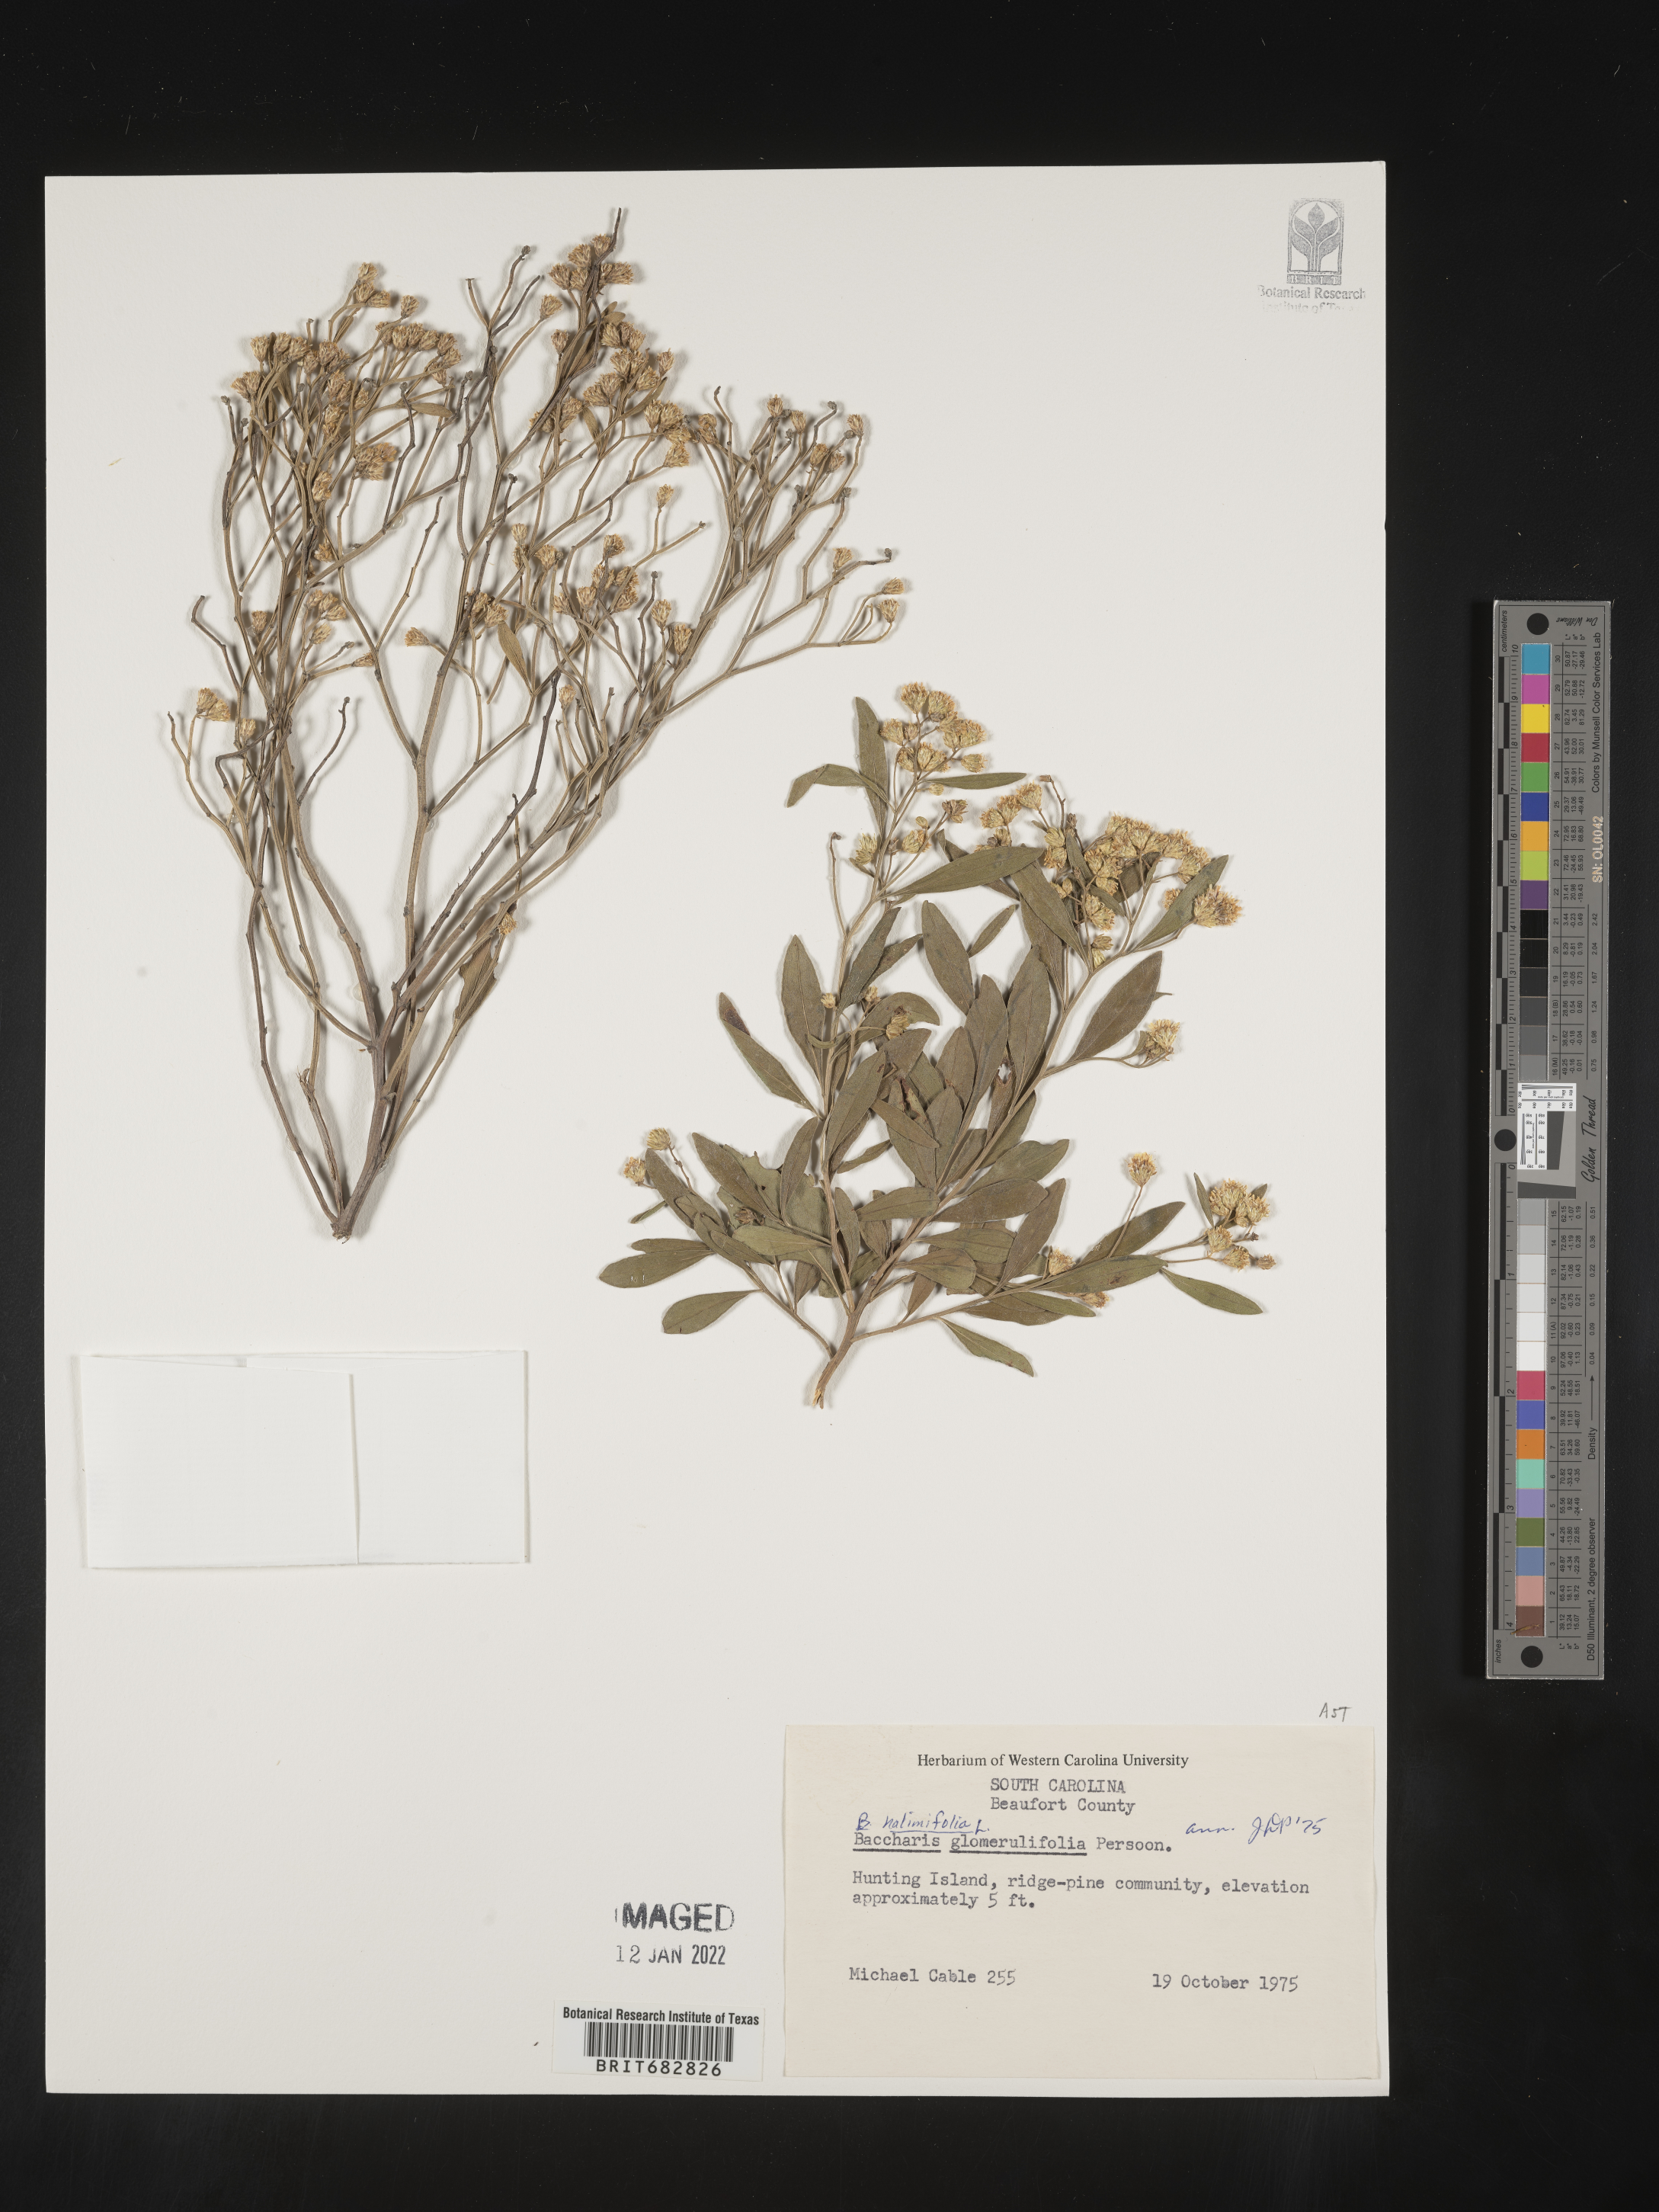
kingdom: Plantae
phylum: Tracheophyta
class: Magnoliopsida
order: Asterales
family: Asteraceae
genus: Nidorella
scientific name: Nidorella ivifolia
